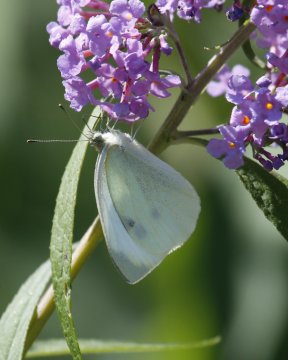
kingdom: Animalia
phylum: Arthropoda
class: Insecta
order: Lepidoptera
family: Pieridae
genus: Pieris
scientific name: Pieris rapae
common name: Cabbage White
